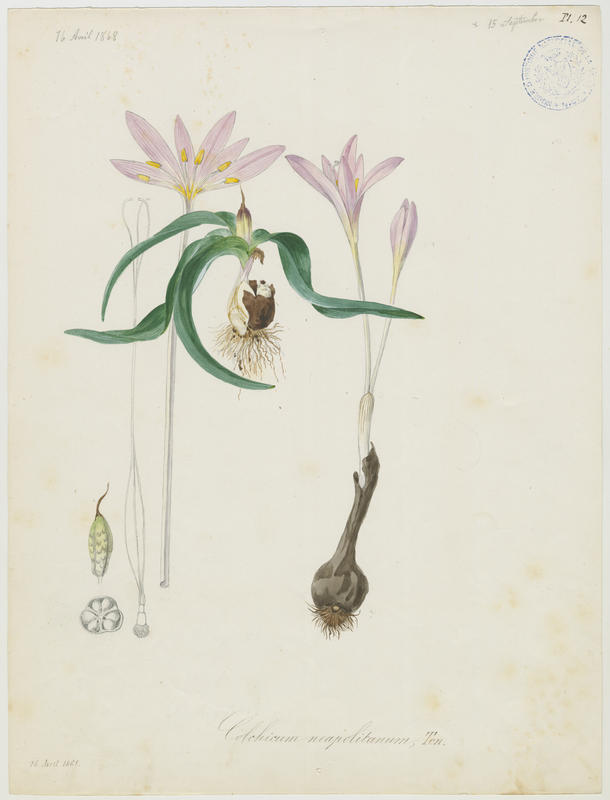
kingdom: Plantae
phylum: Tracheophyta
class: Liliopsida
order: Liliales
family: Colchicaceae
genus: Colchicum
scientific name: Colchicum parnassicum
